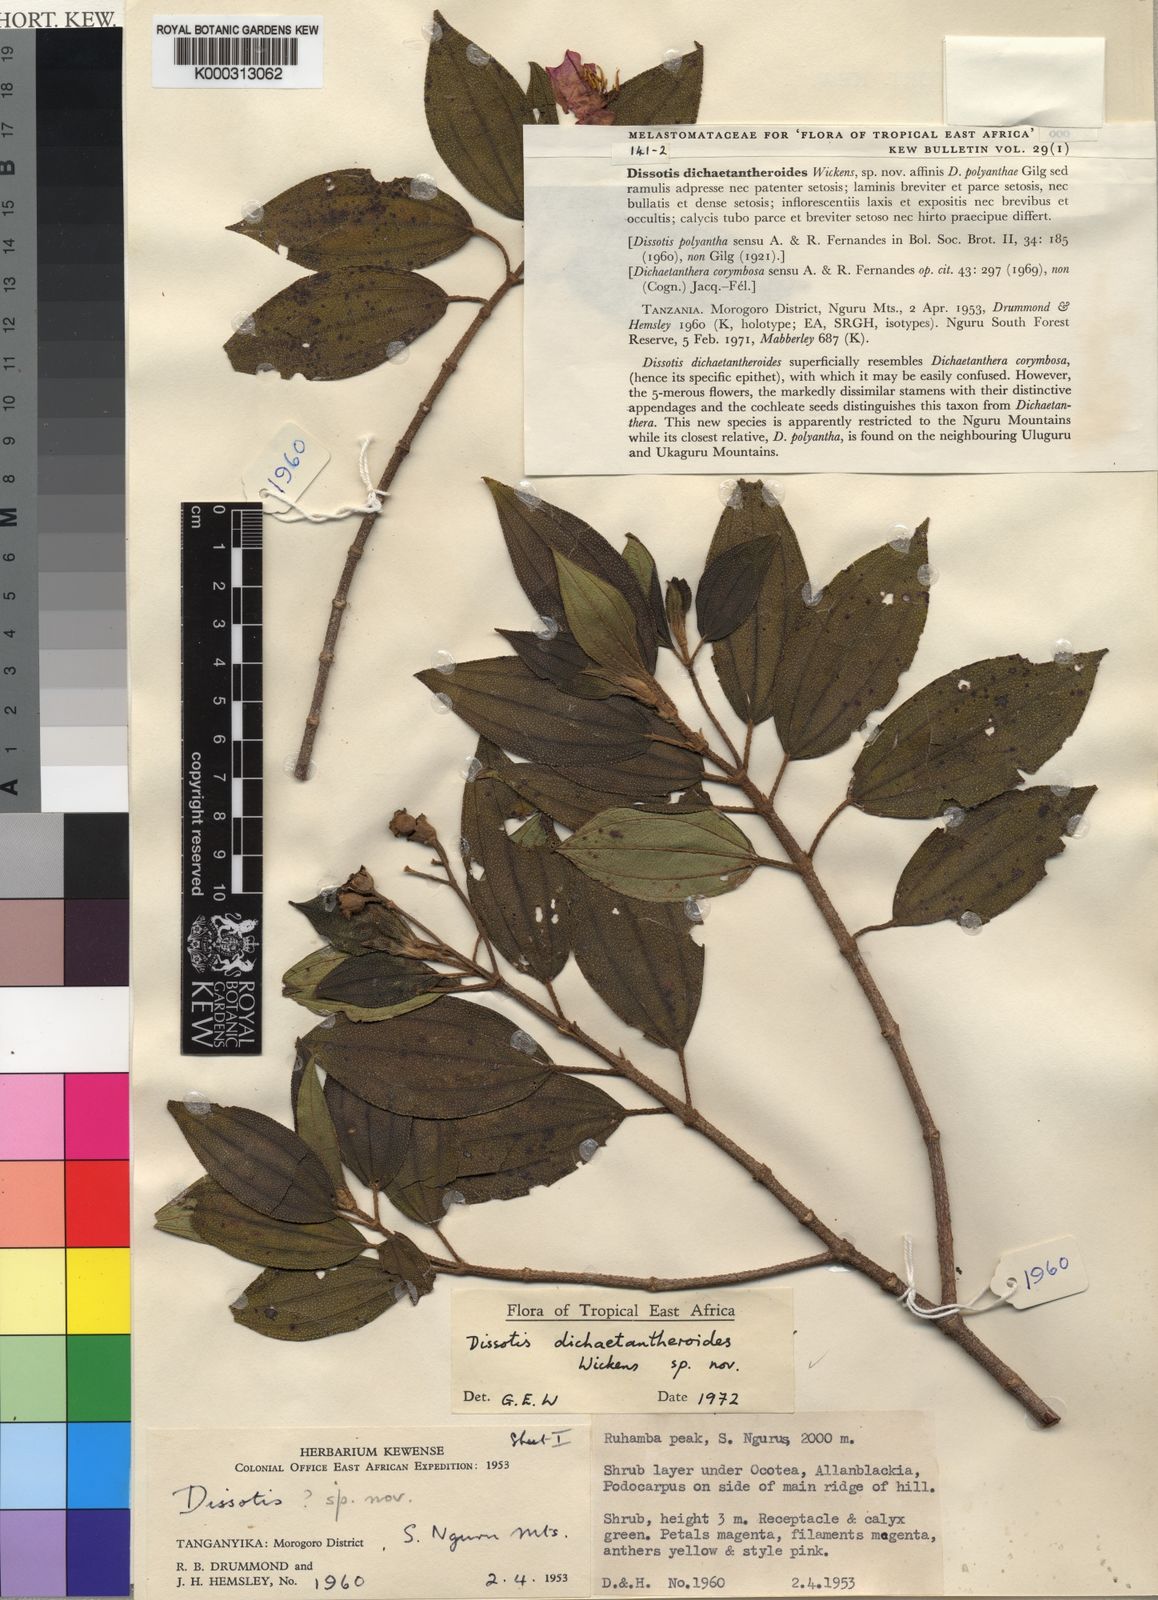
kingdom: Plantae
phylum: Tracheophyta
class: Magnoliopsida
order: Myrtales
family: Melastomataceae
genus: Dissotidendron
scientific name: Dissotidendron dichaetantheroides
